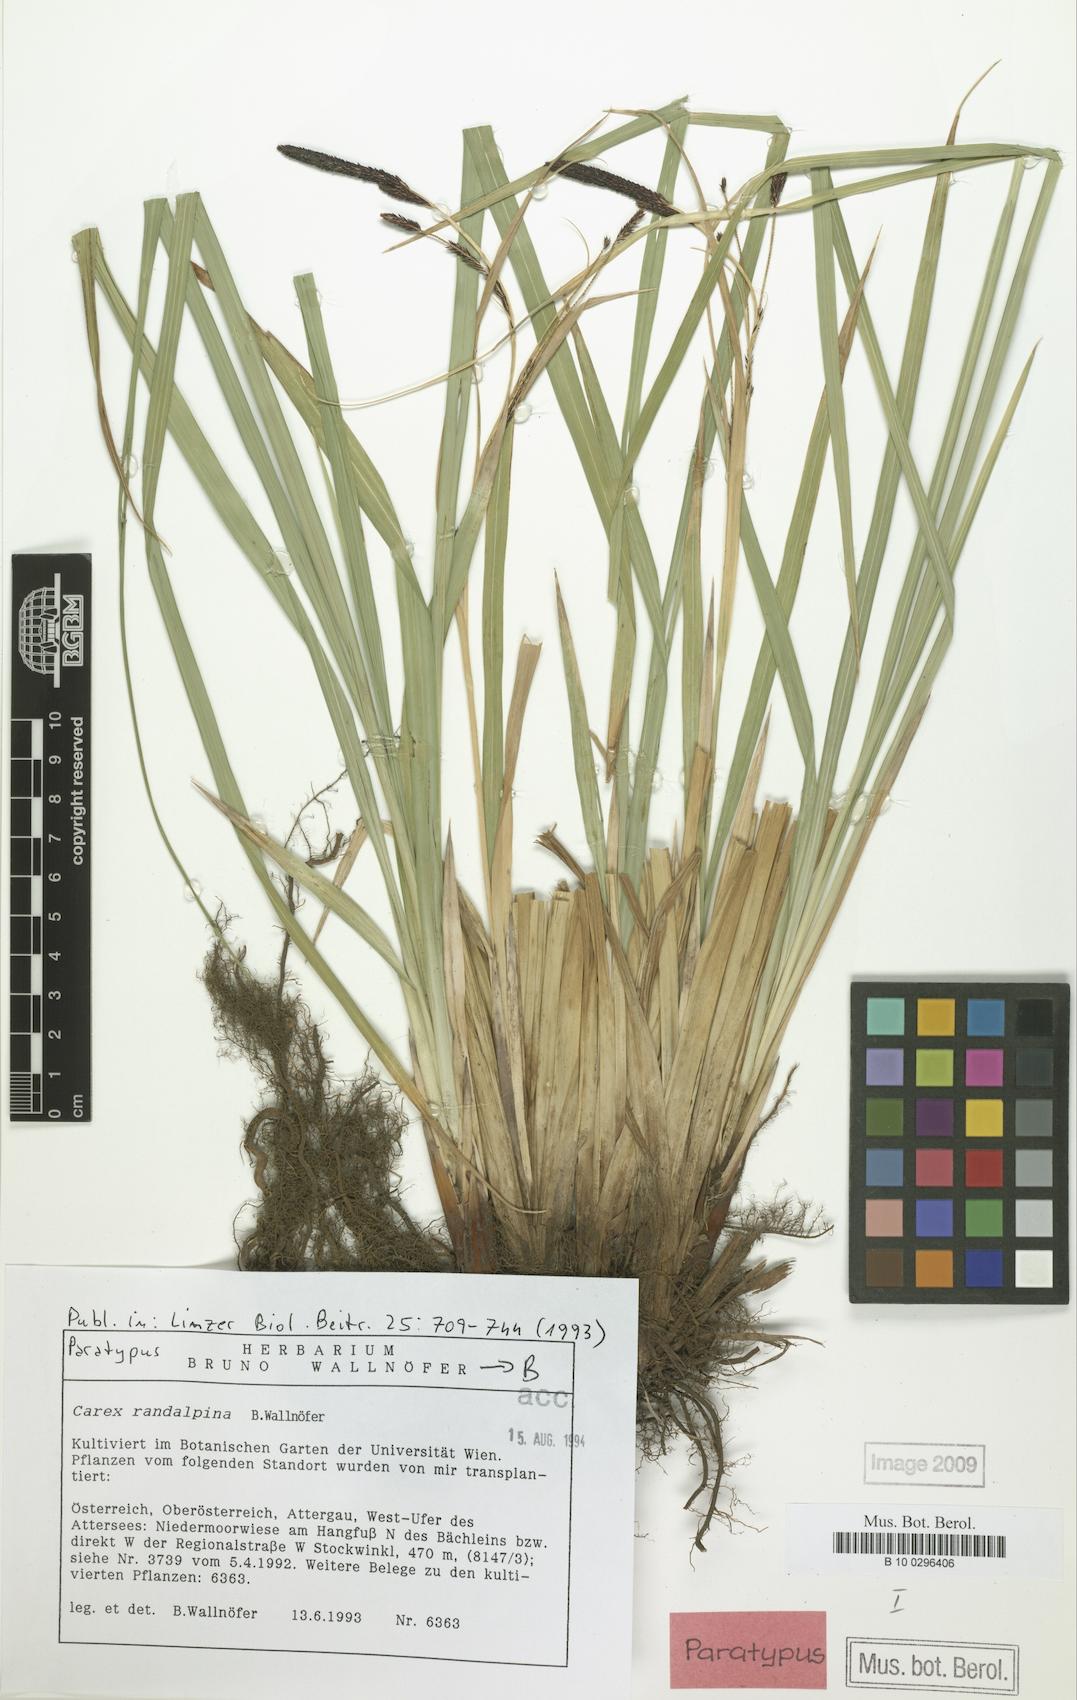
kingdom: Plantae
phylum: Tracheophyta
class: Liliopsida
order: Poales
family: Cyperaceae
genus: Carex
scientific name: Carex randalpina
